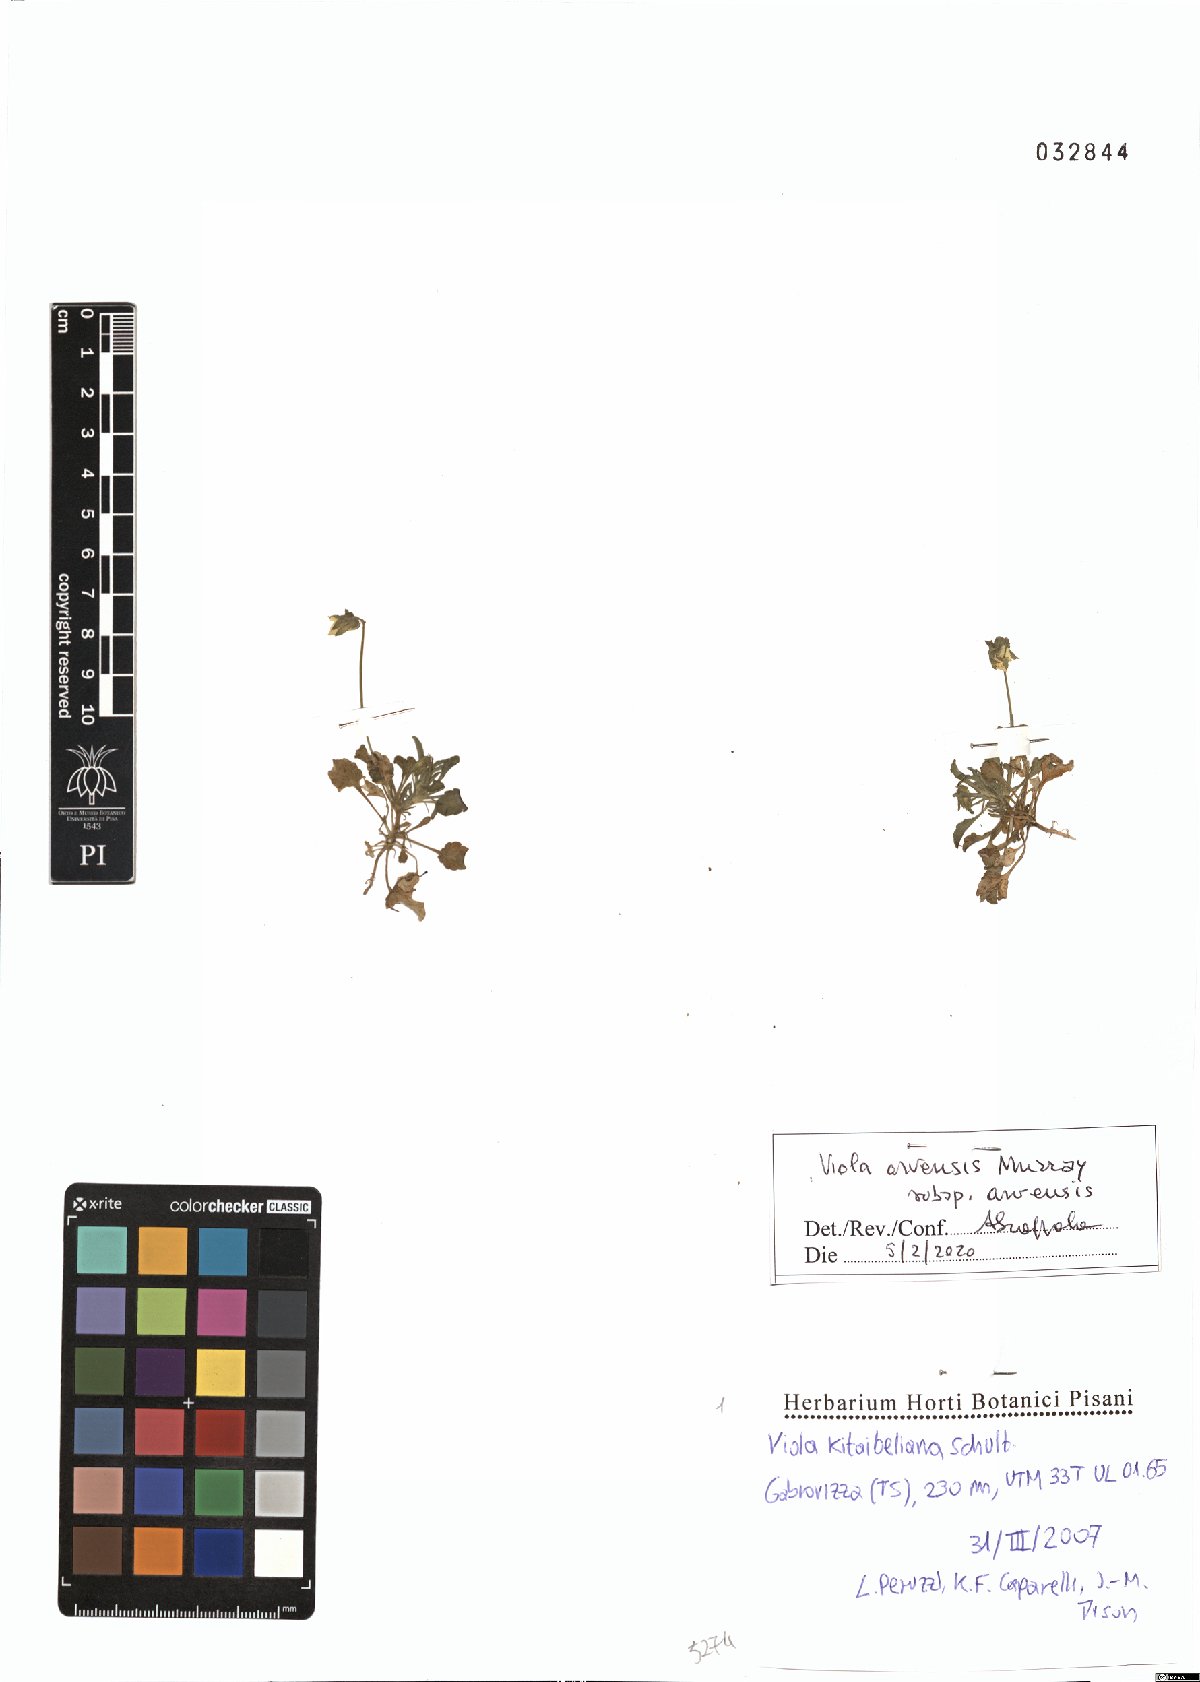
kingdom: Plantae
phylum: Tracheophyta
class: Magnoliopsida
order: Malpighiales
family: Violaceae
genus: Viola
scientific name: Viola arvensis
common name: Field pansy
